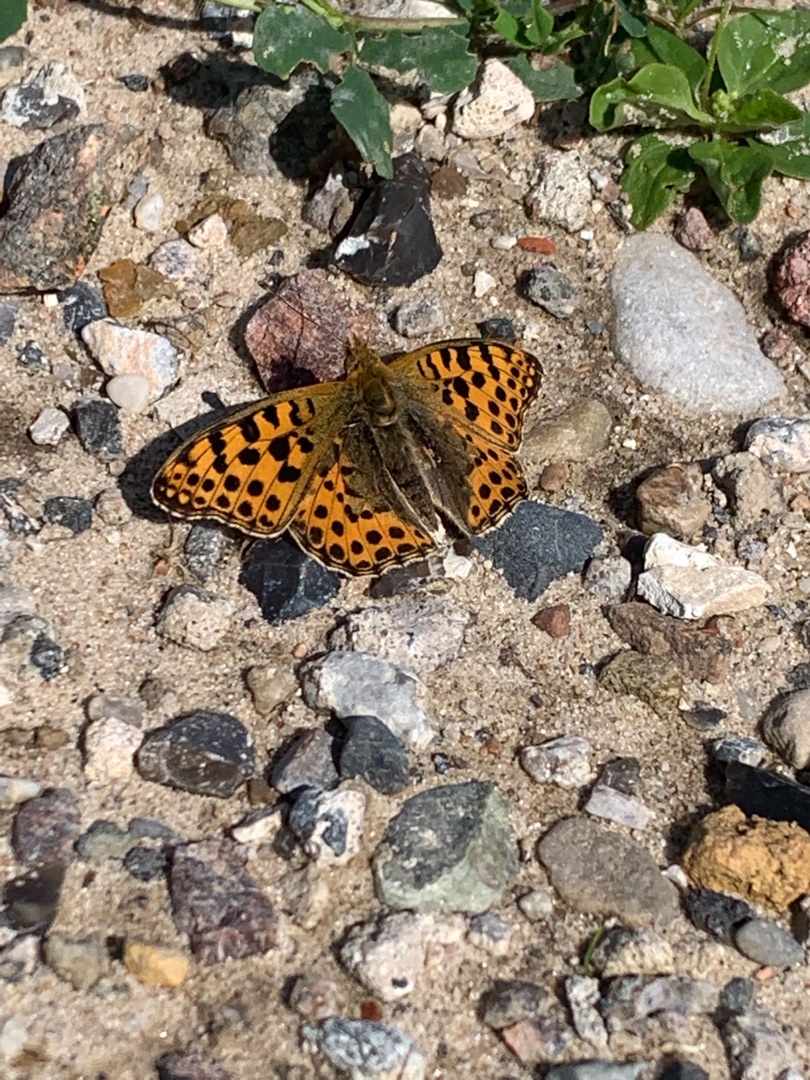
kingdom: Animalia
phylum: Arthropoda
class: Insecta
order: Lepidoptera
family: Nymphalidae
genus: Issoria
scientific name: Issoria lathonia
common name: Storplettet perlemorsommerfugl
